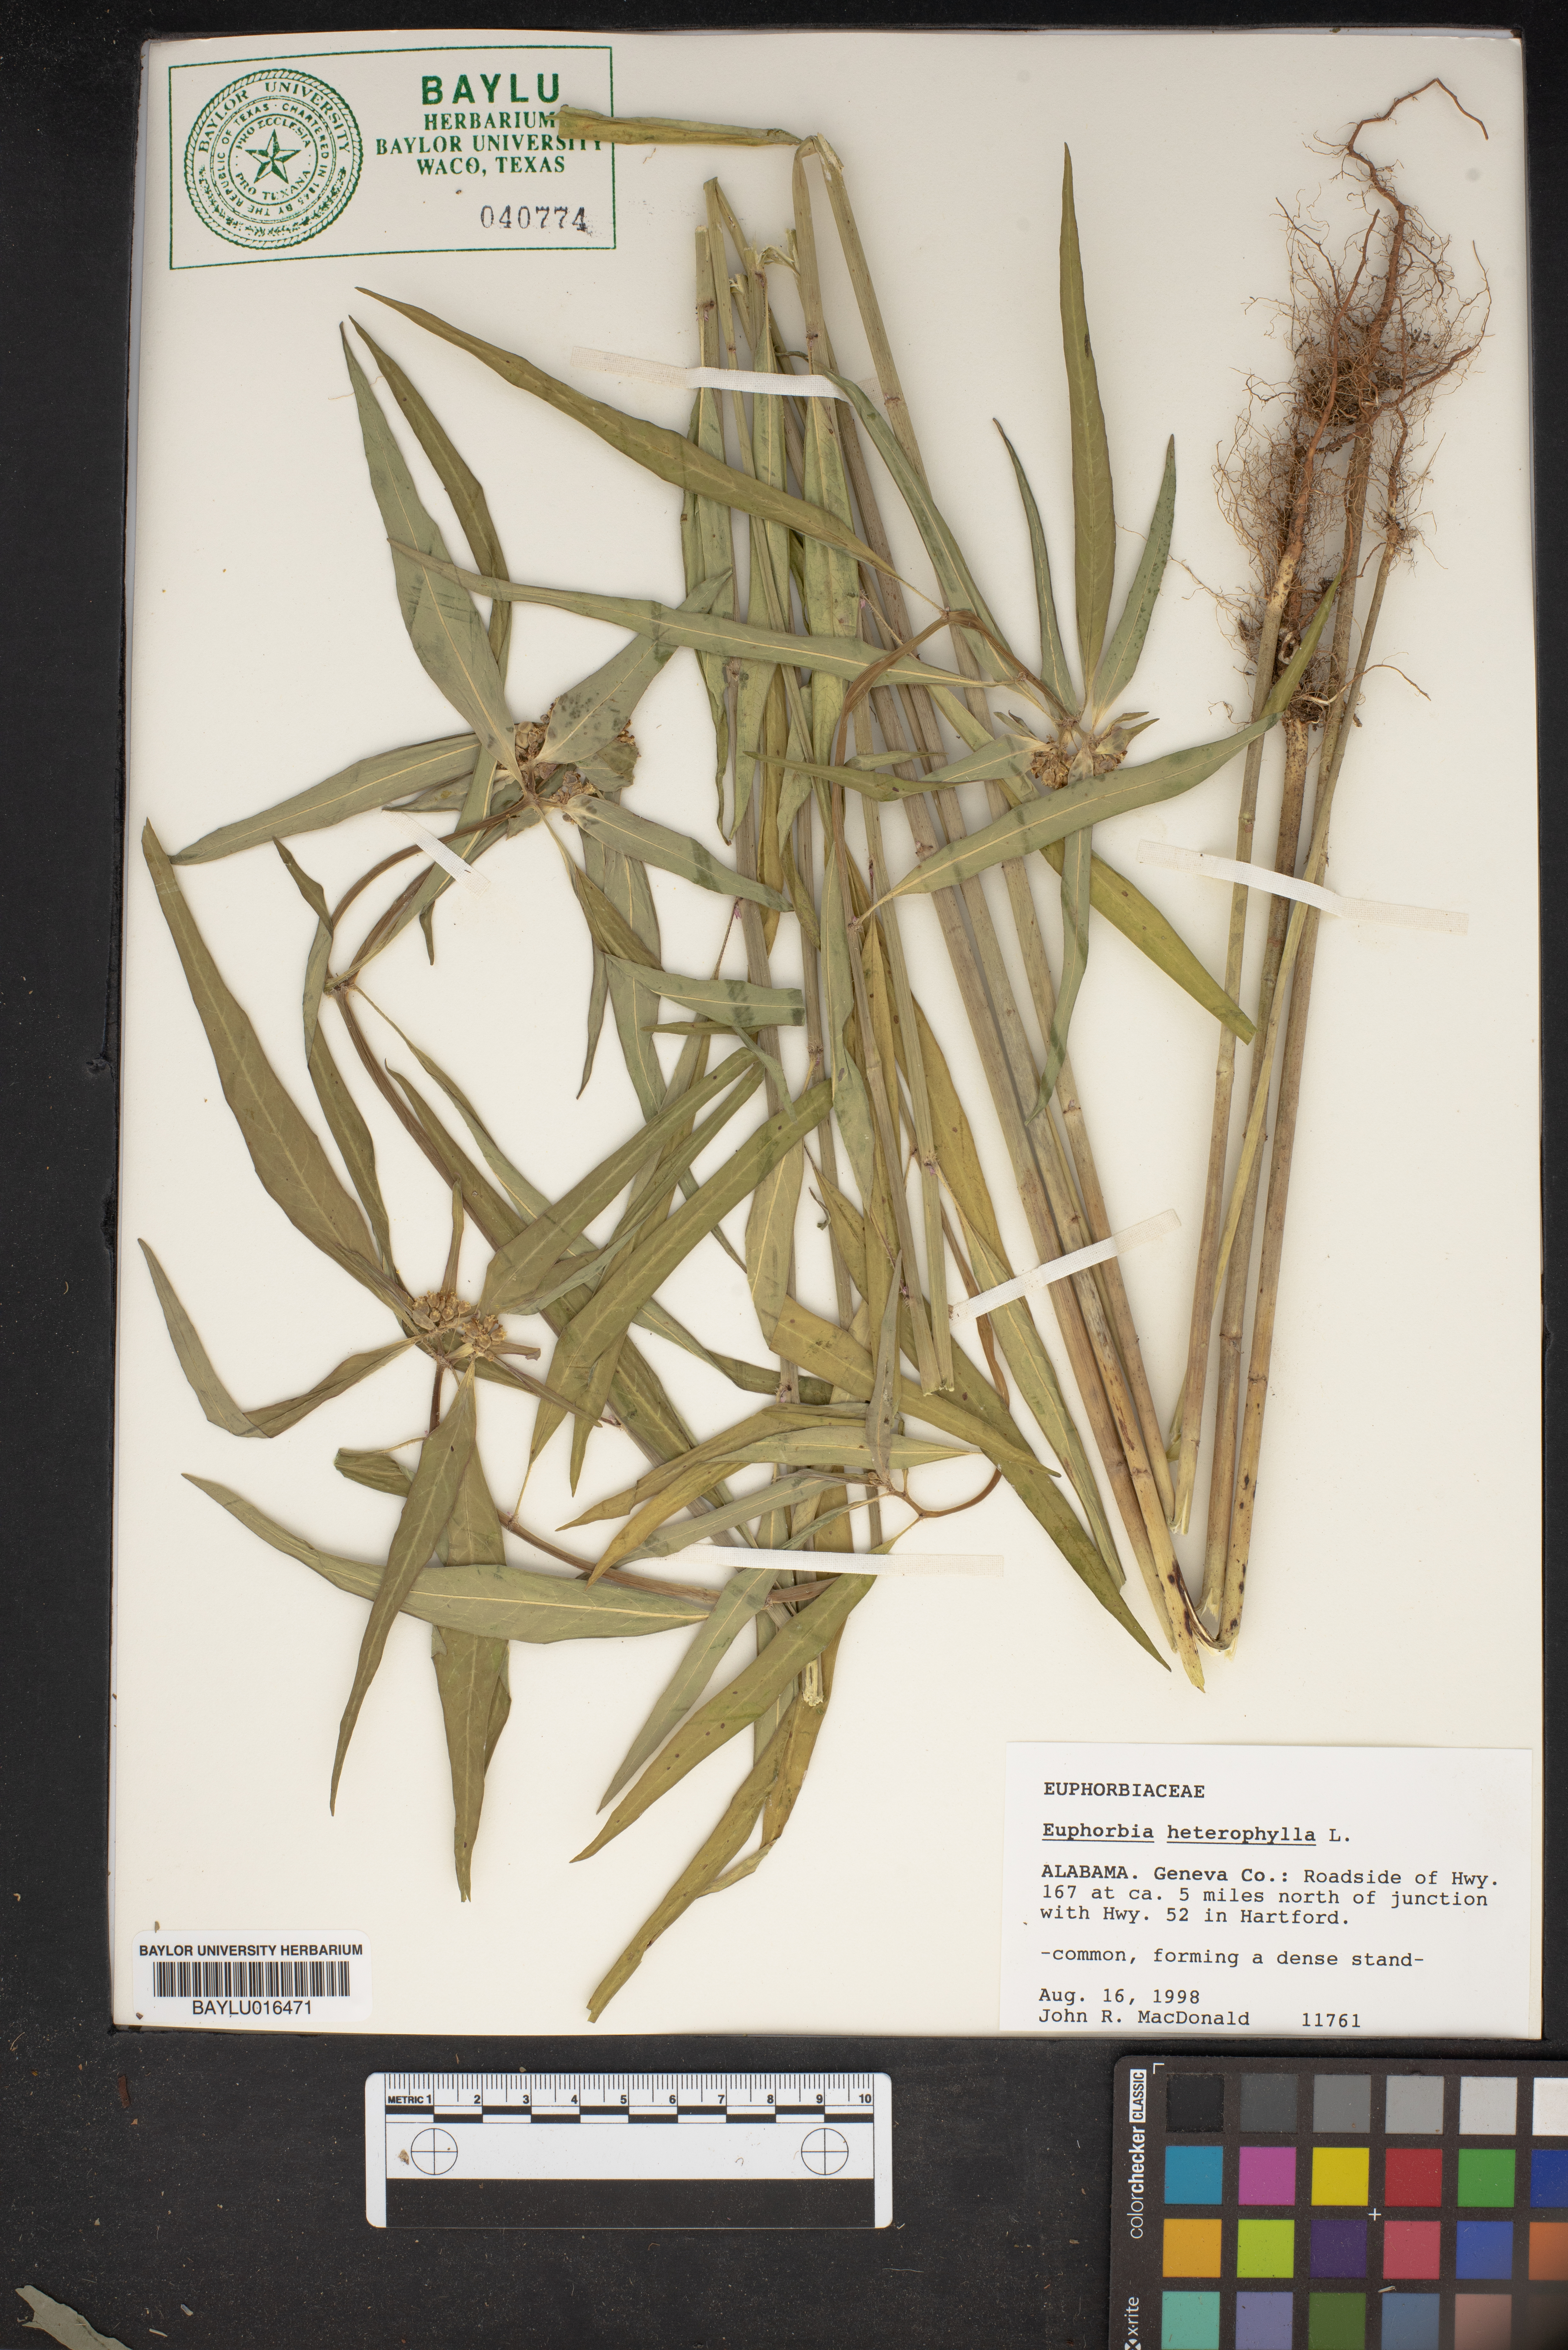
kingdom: Plantae
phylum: Tracheophyta
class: Magnoliopsida
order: Malpighiales
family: Euphorbiaceae
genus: Euphorbia
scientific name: Euphorbia heterophylla
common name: Mexican fireplant
